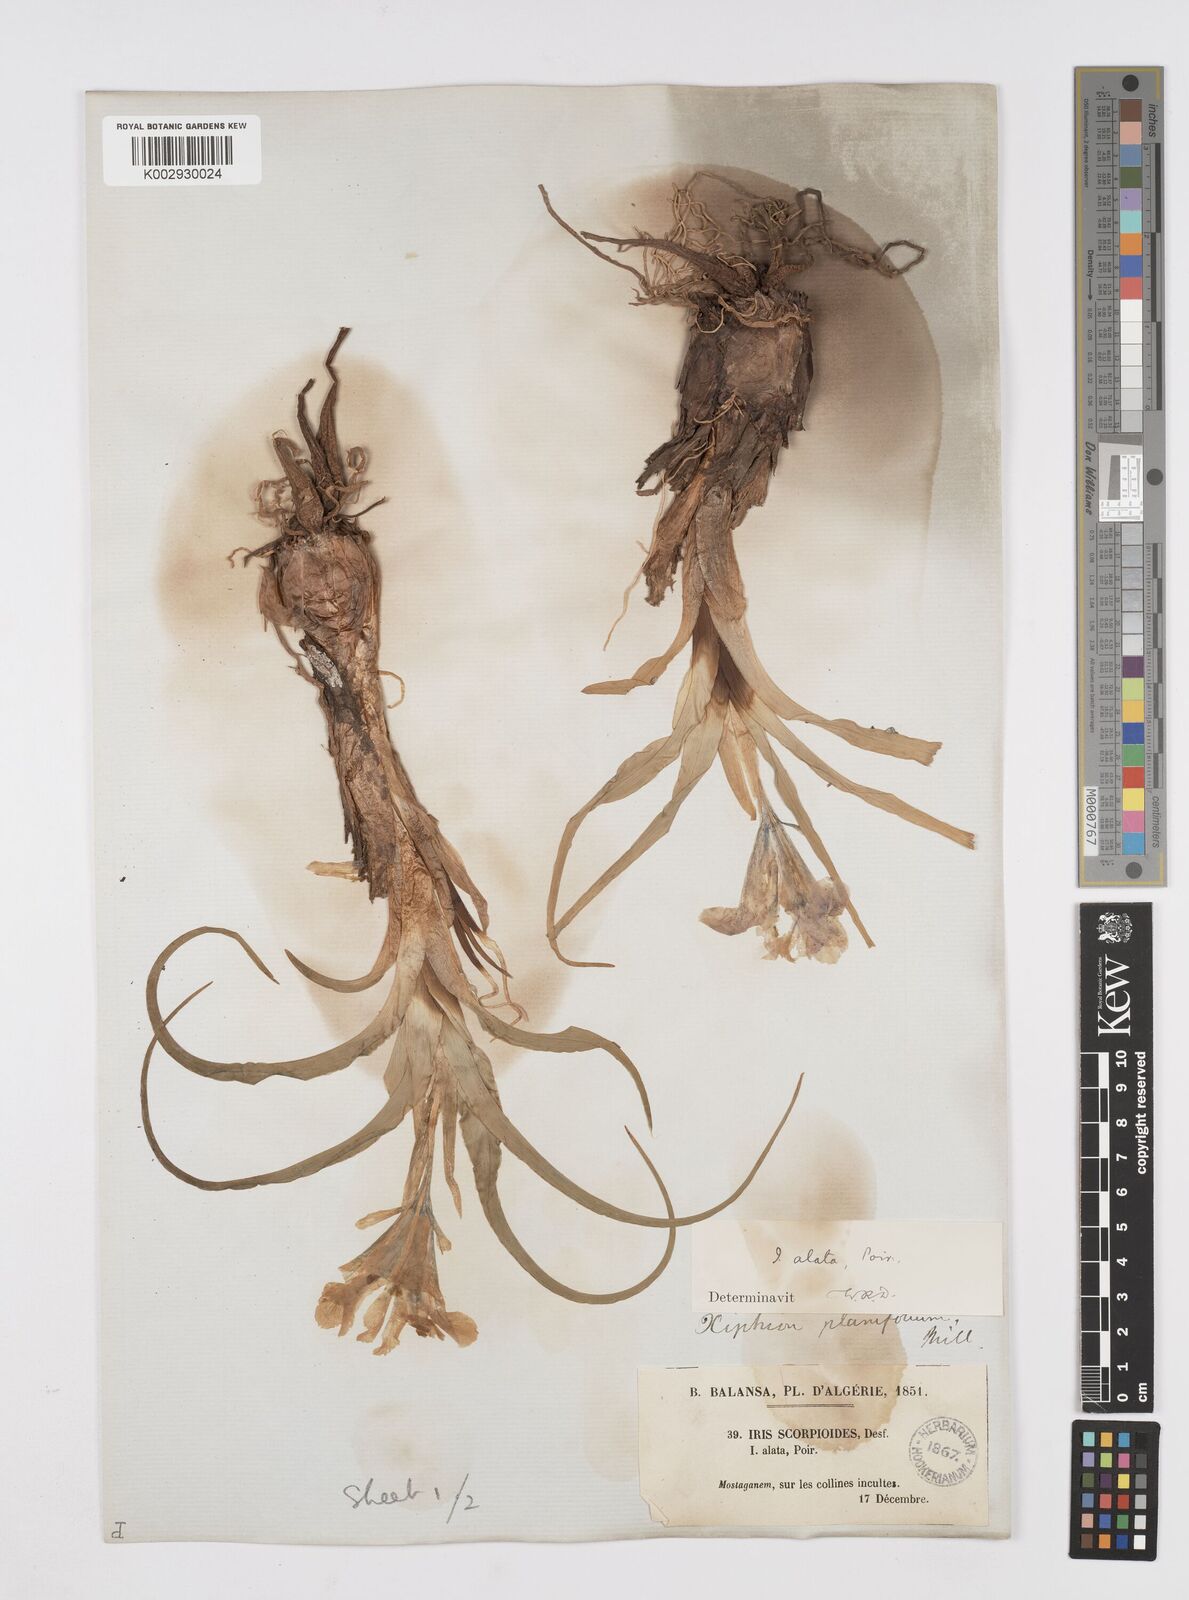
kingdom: Plantae
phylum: Tracheophyta
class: Liliopsida
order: Asparagales
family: Iridaceae
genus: Iris
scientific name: Iris planifolia
